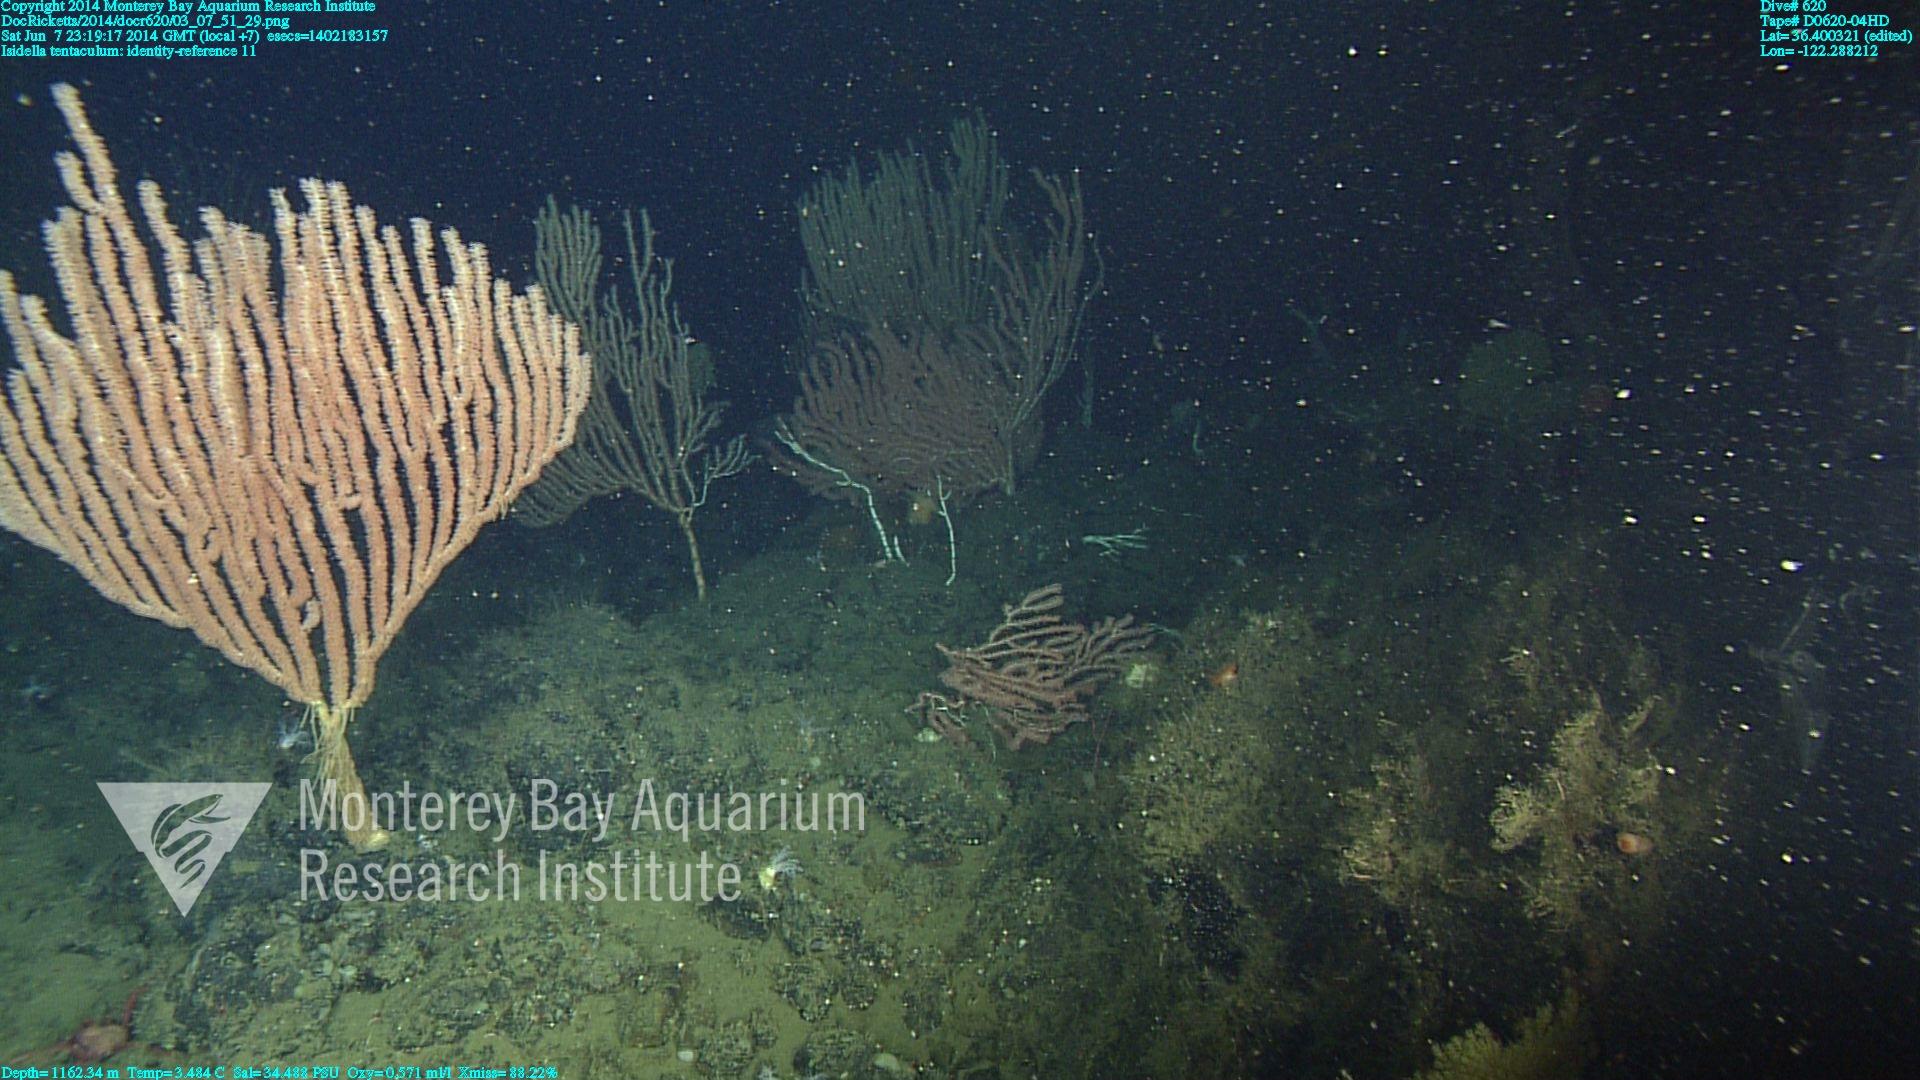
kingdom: Animalia
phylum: Cnidaria
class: Anthozoa
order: Scleralcyonacea
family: Keratoisididae
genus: Isidella
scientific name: Isidella tentaculum
